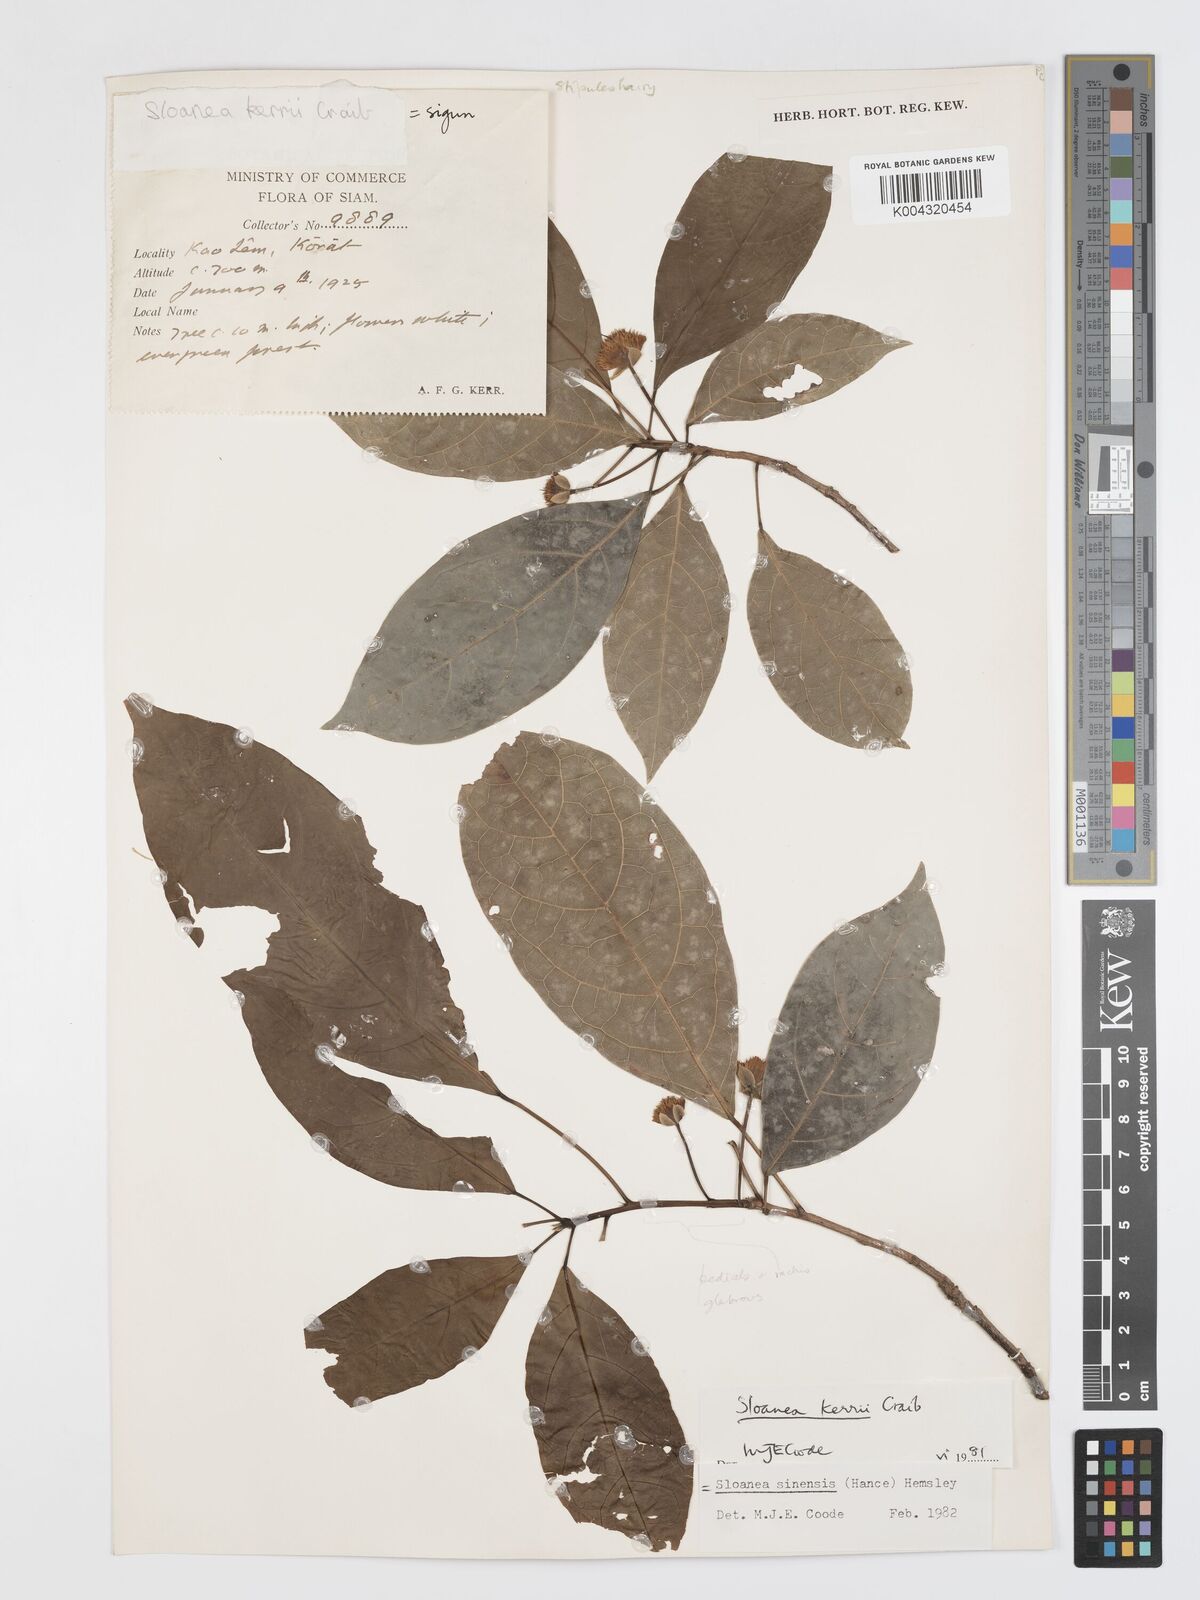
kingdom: Plantae
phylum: Tracheophyta
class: Magnoliopsida
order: Oxalidales
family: Elaeocarpaceae
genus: Sloanea
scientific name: Sloanea sinensis
